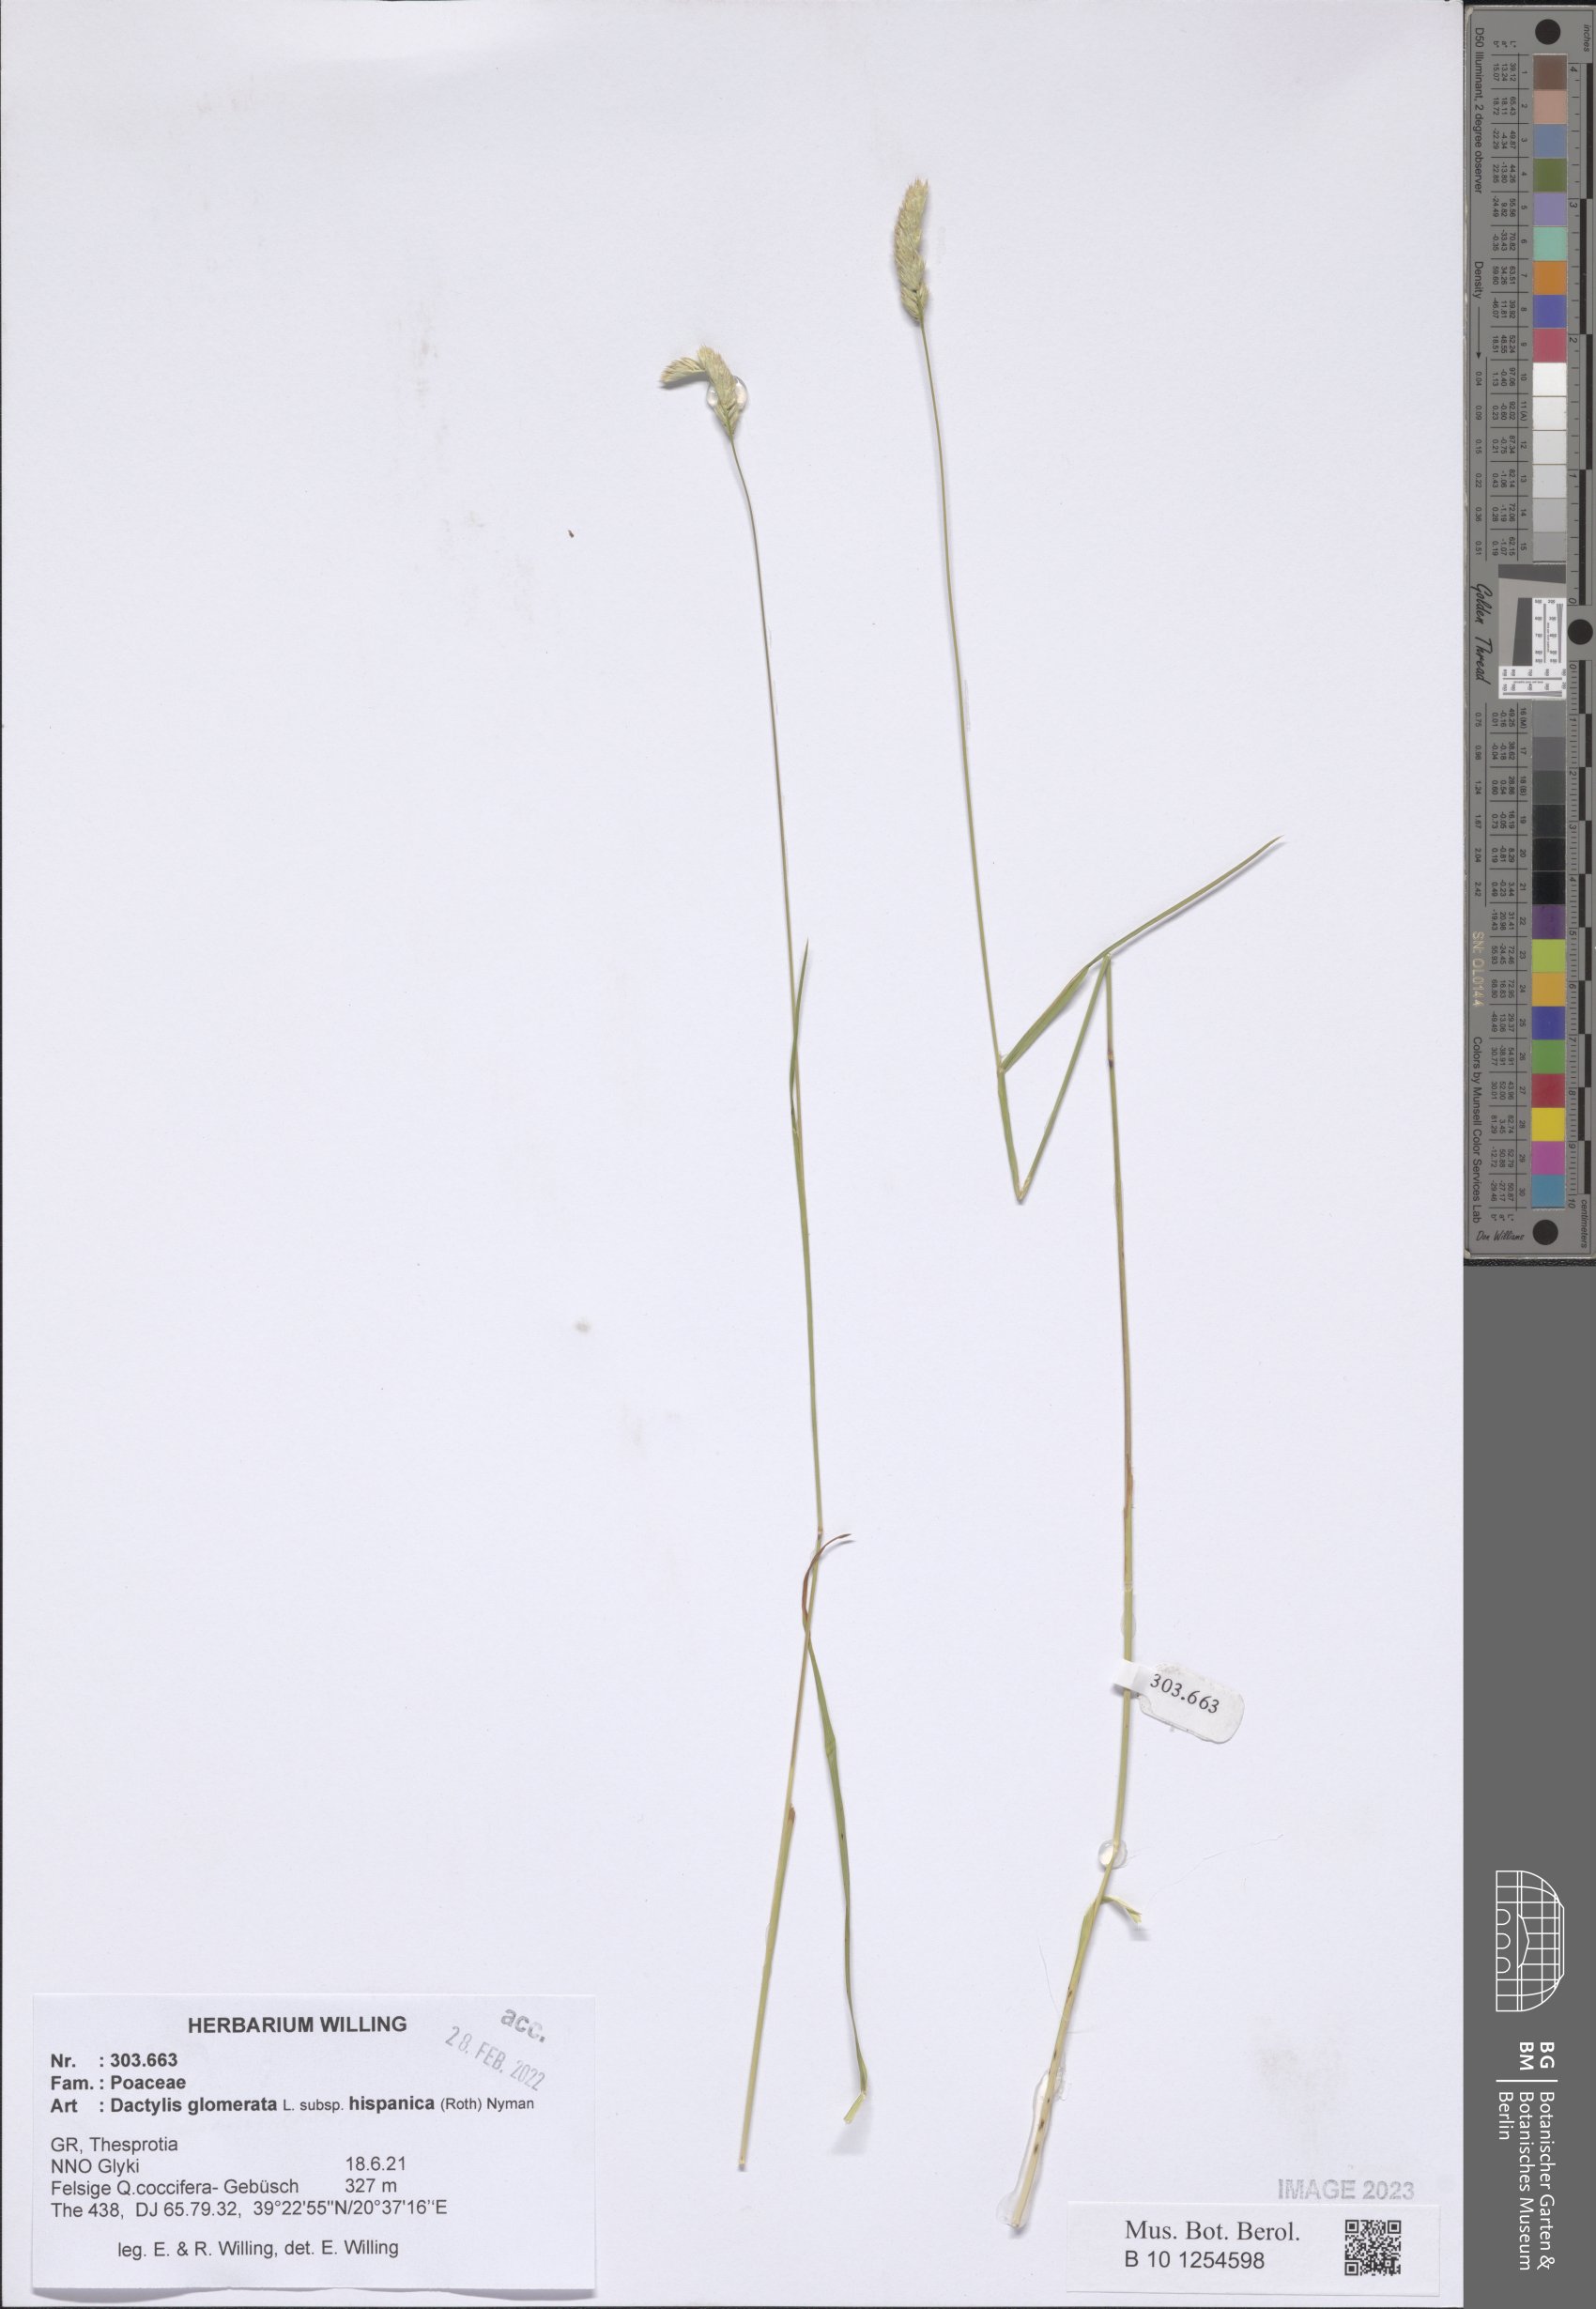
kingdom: Plantae
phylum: Tracheophyta
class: Liliopsida
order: Poales
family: Poaceae
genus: Dactylis
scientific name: Dactylis glomerata
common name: Orchardgrass
